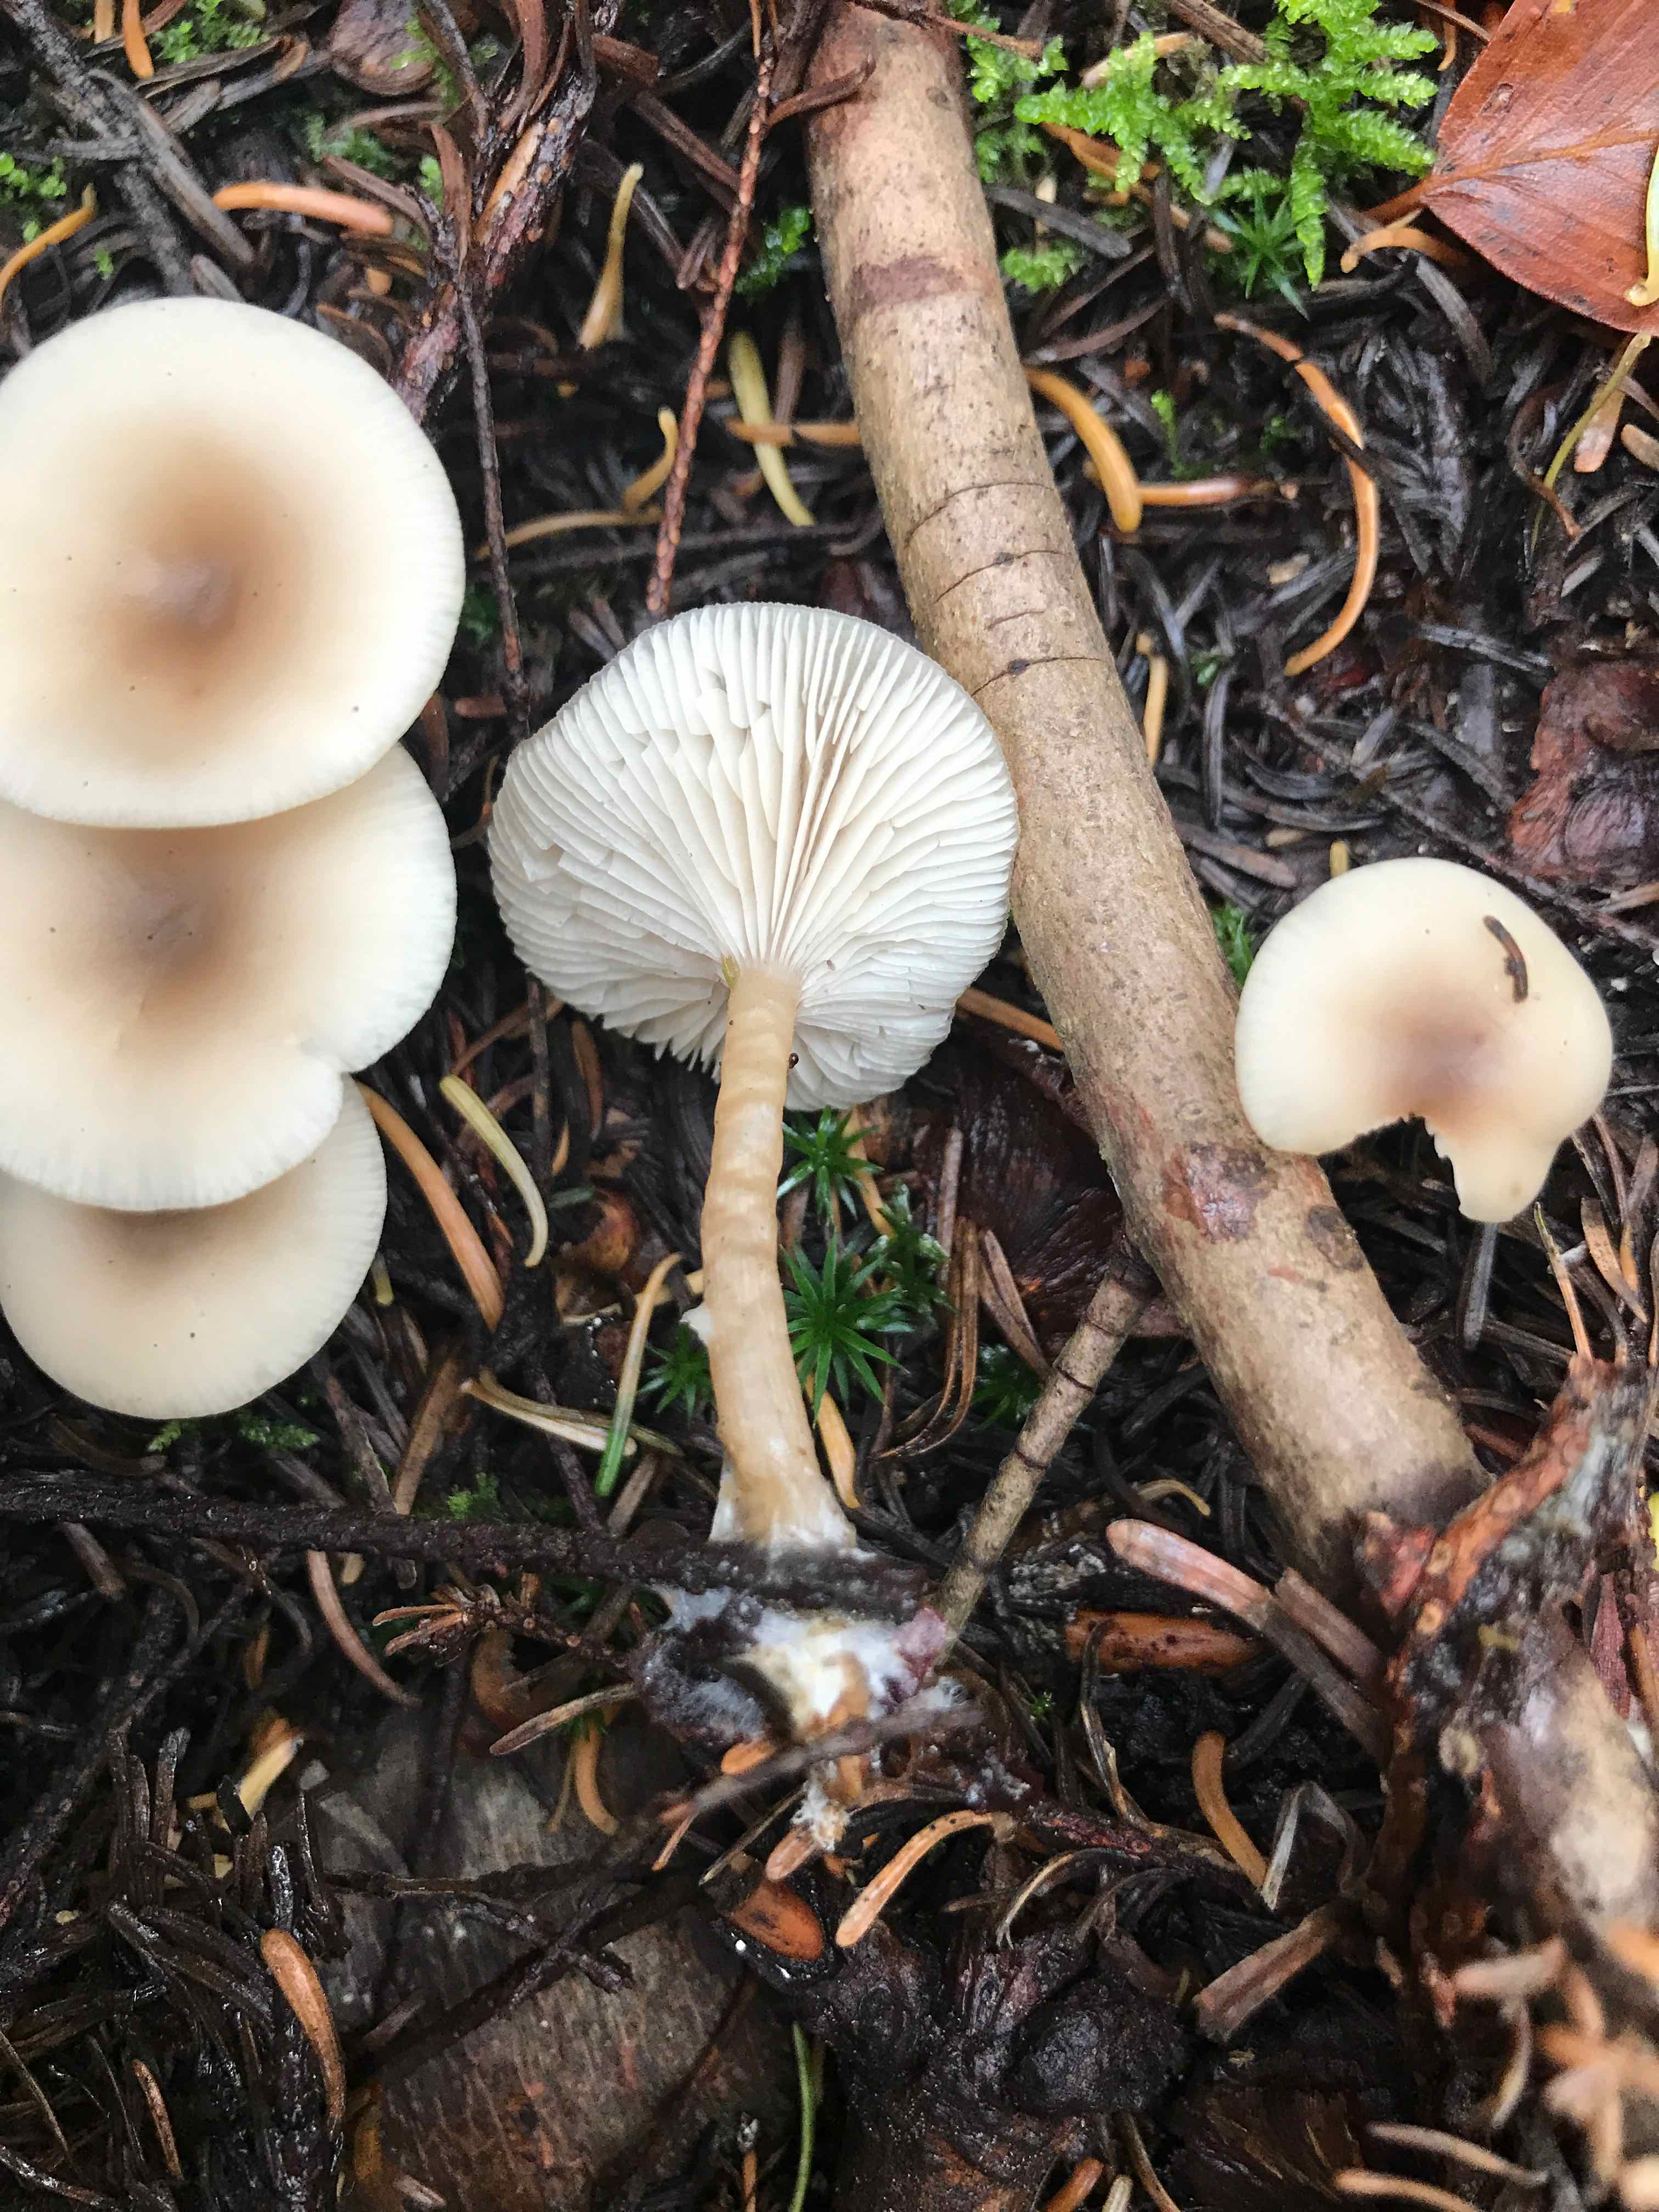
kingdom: Fungi
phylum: Basidiomycota
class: Agaricomycetes
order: Agaricales
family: Tricholomataceae
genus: Clitocybe
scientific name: Clitocybe fragrans
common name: vellugtende tragthat
